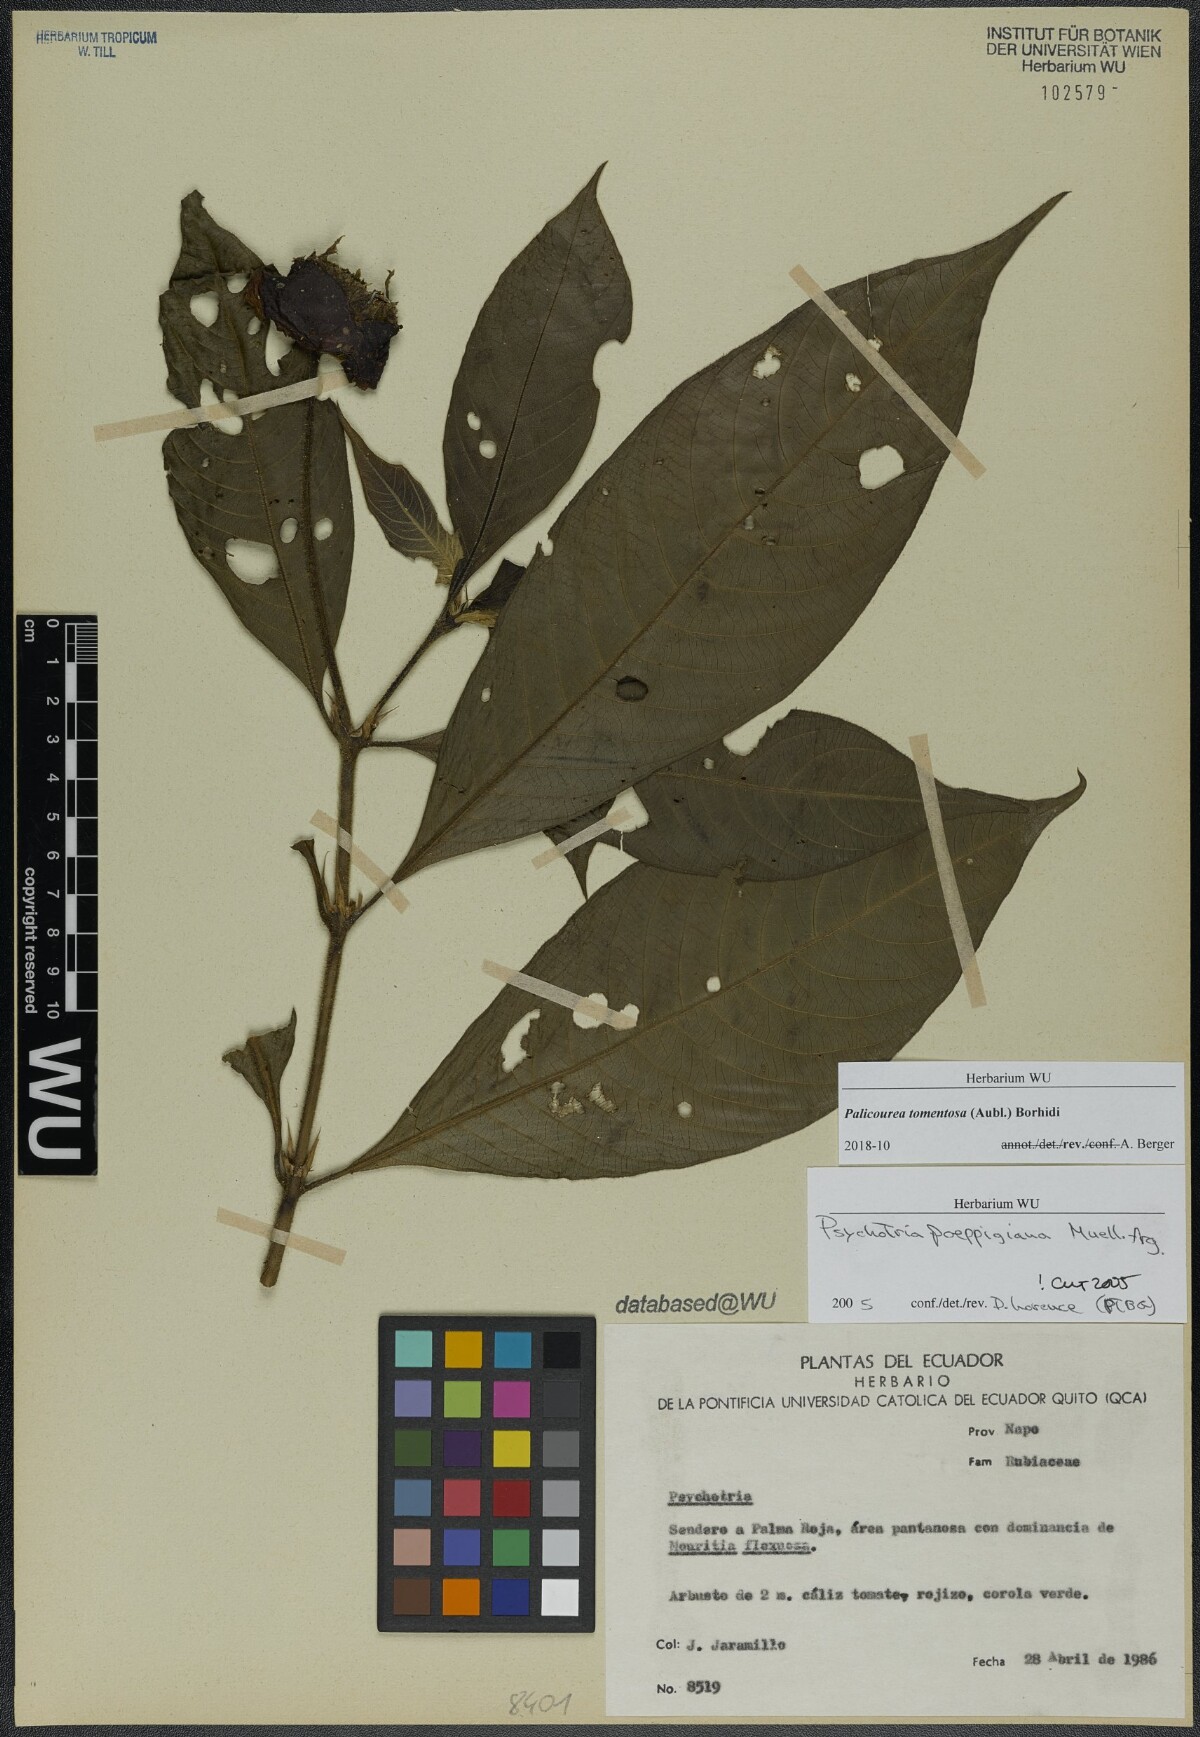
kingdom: Plantae
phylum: Tracheophyta
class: Magnoliopsida
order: Gentianales
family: Rubiaceae
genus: Palicourea
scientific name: Palicourea tomentosa
